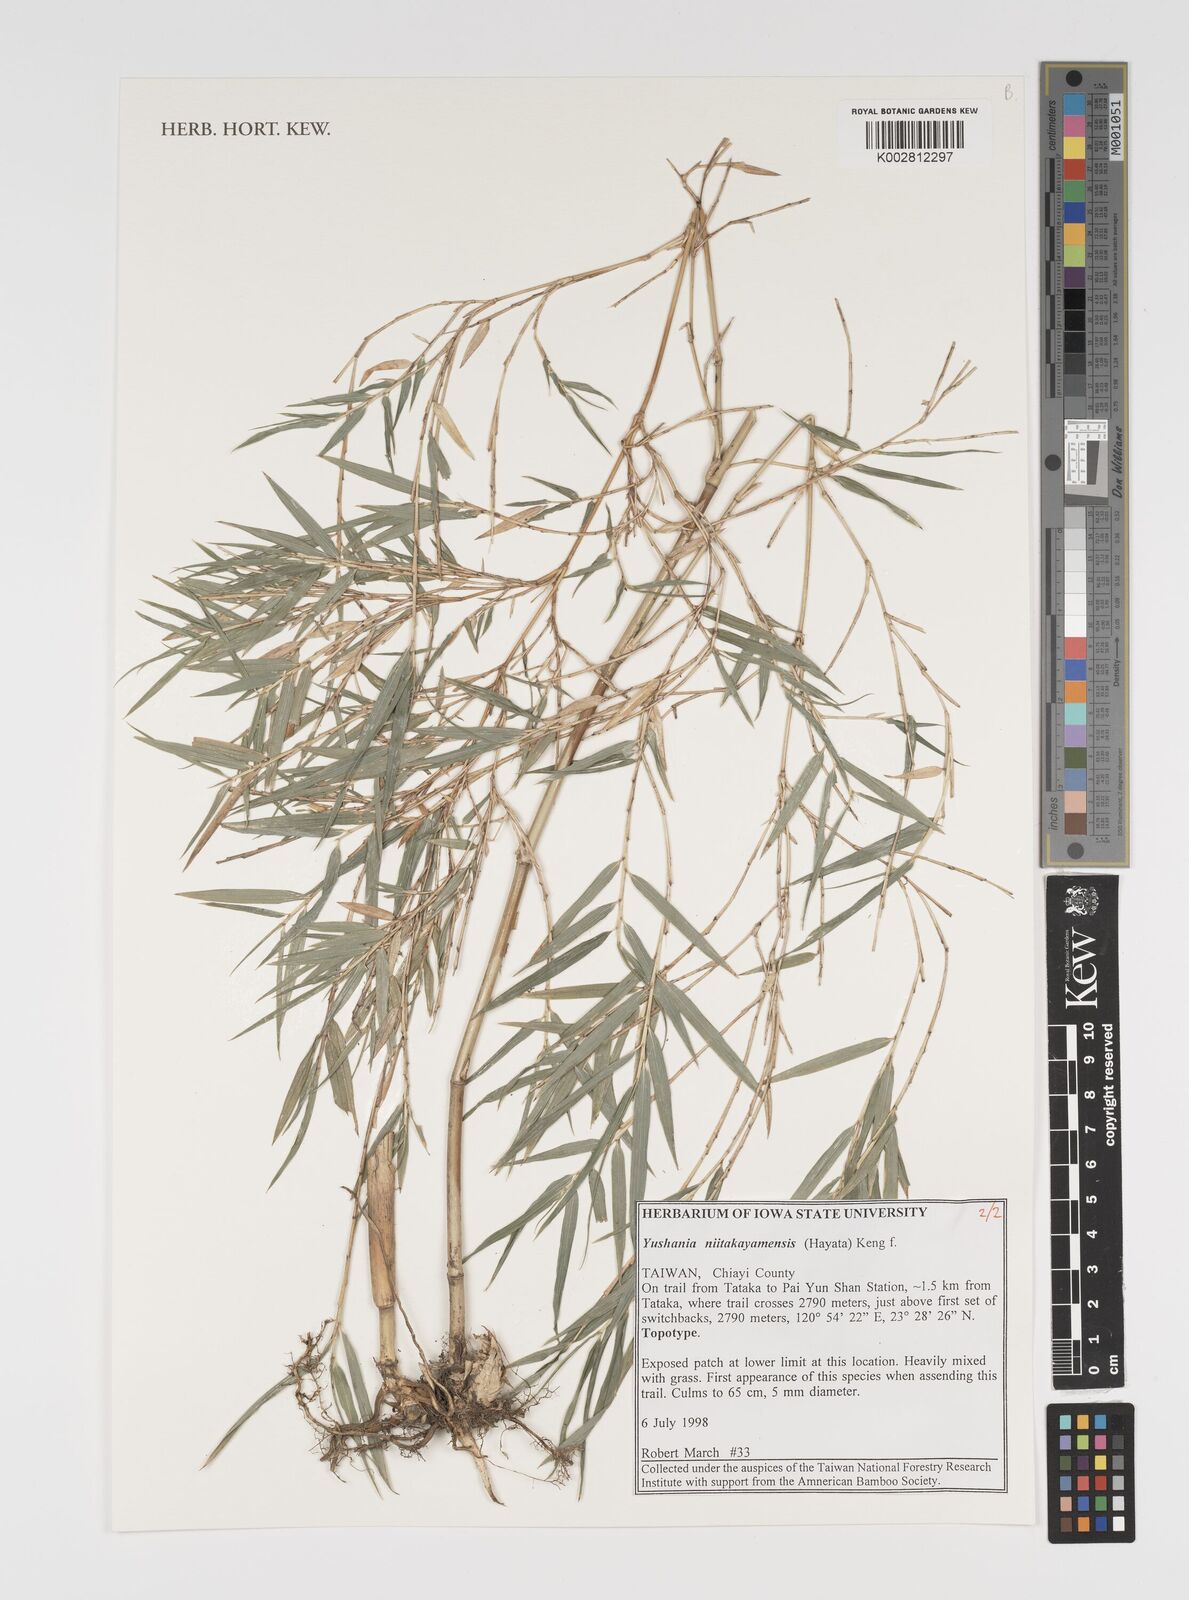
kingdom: Plantae
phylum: Tracheophyta
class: Liliopsida
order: Poales
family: Poaceae
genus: Yushania
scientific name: Yushania niitakayamensis
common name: Yushan cane
